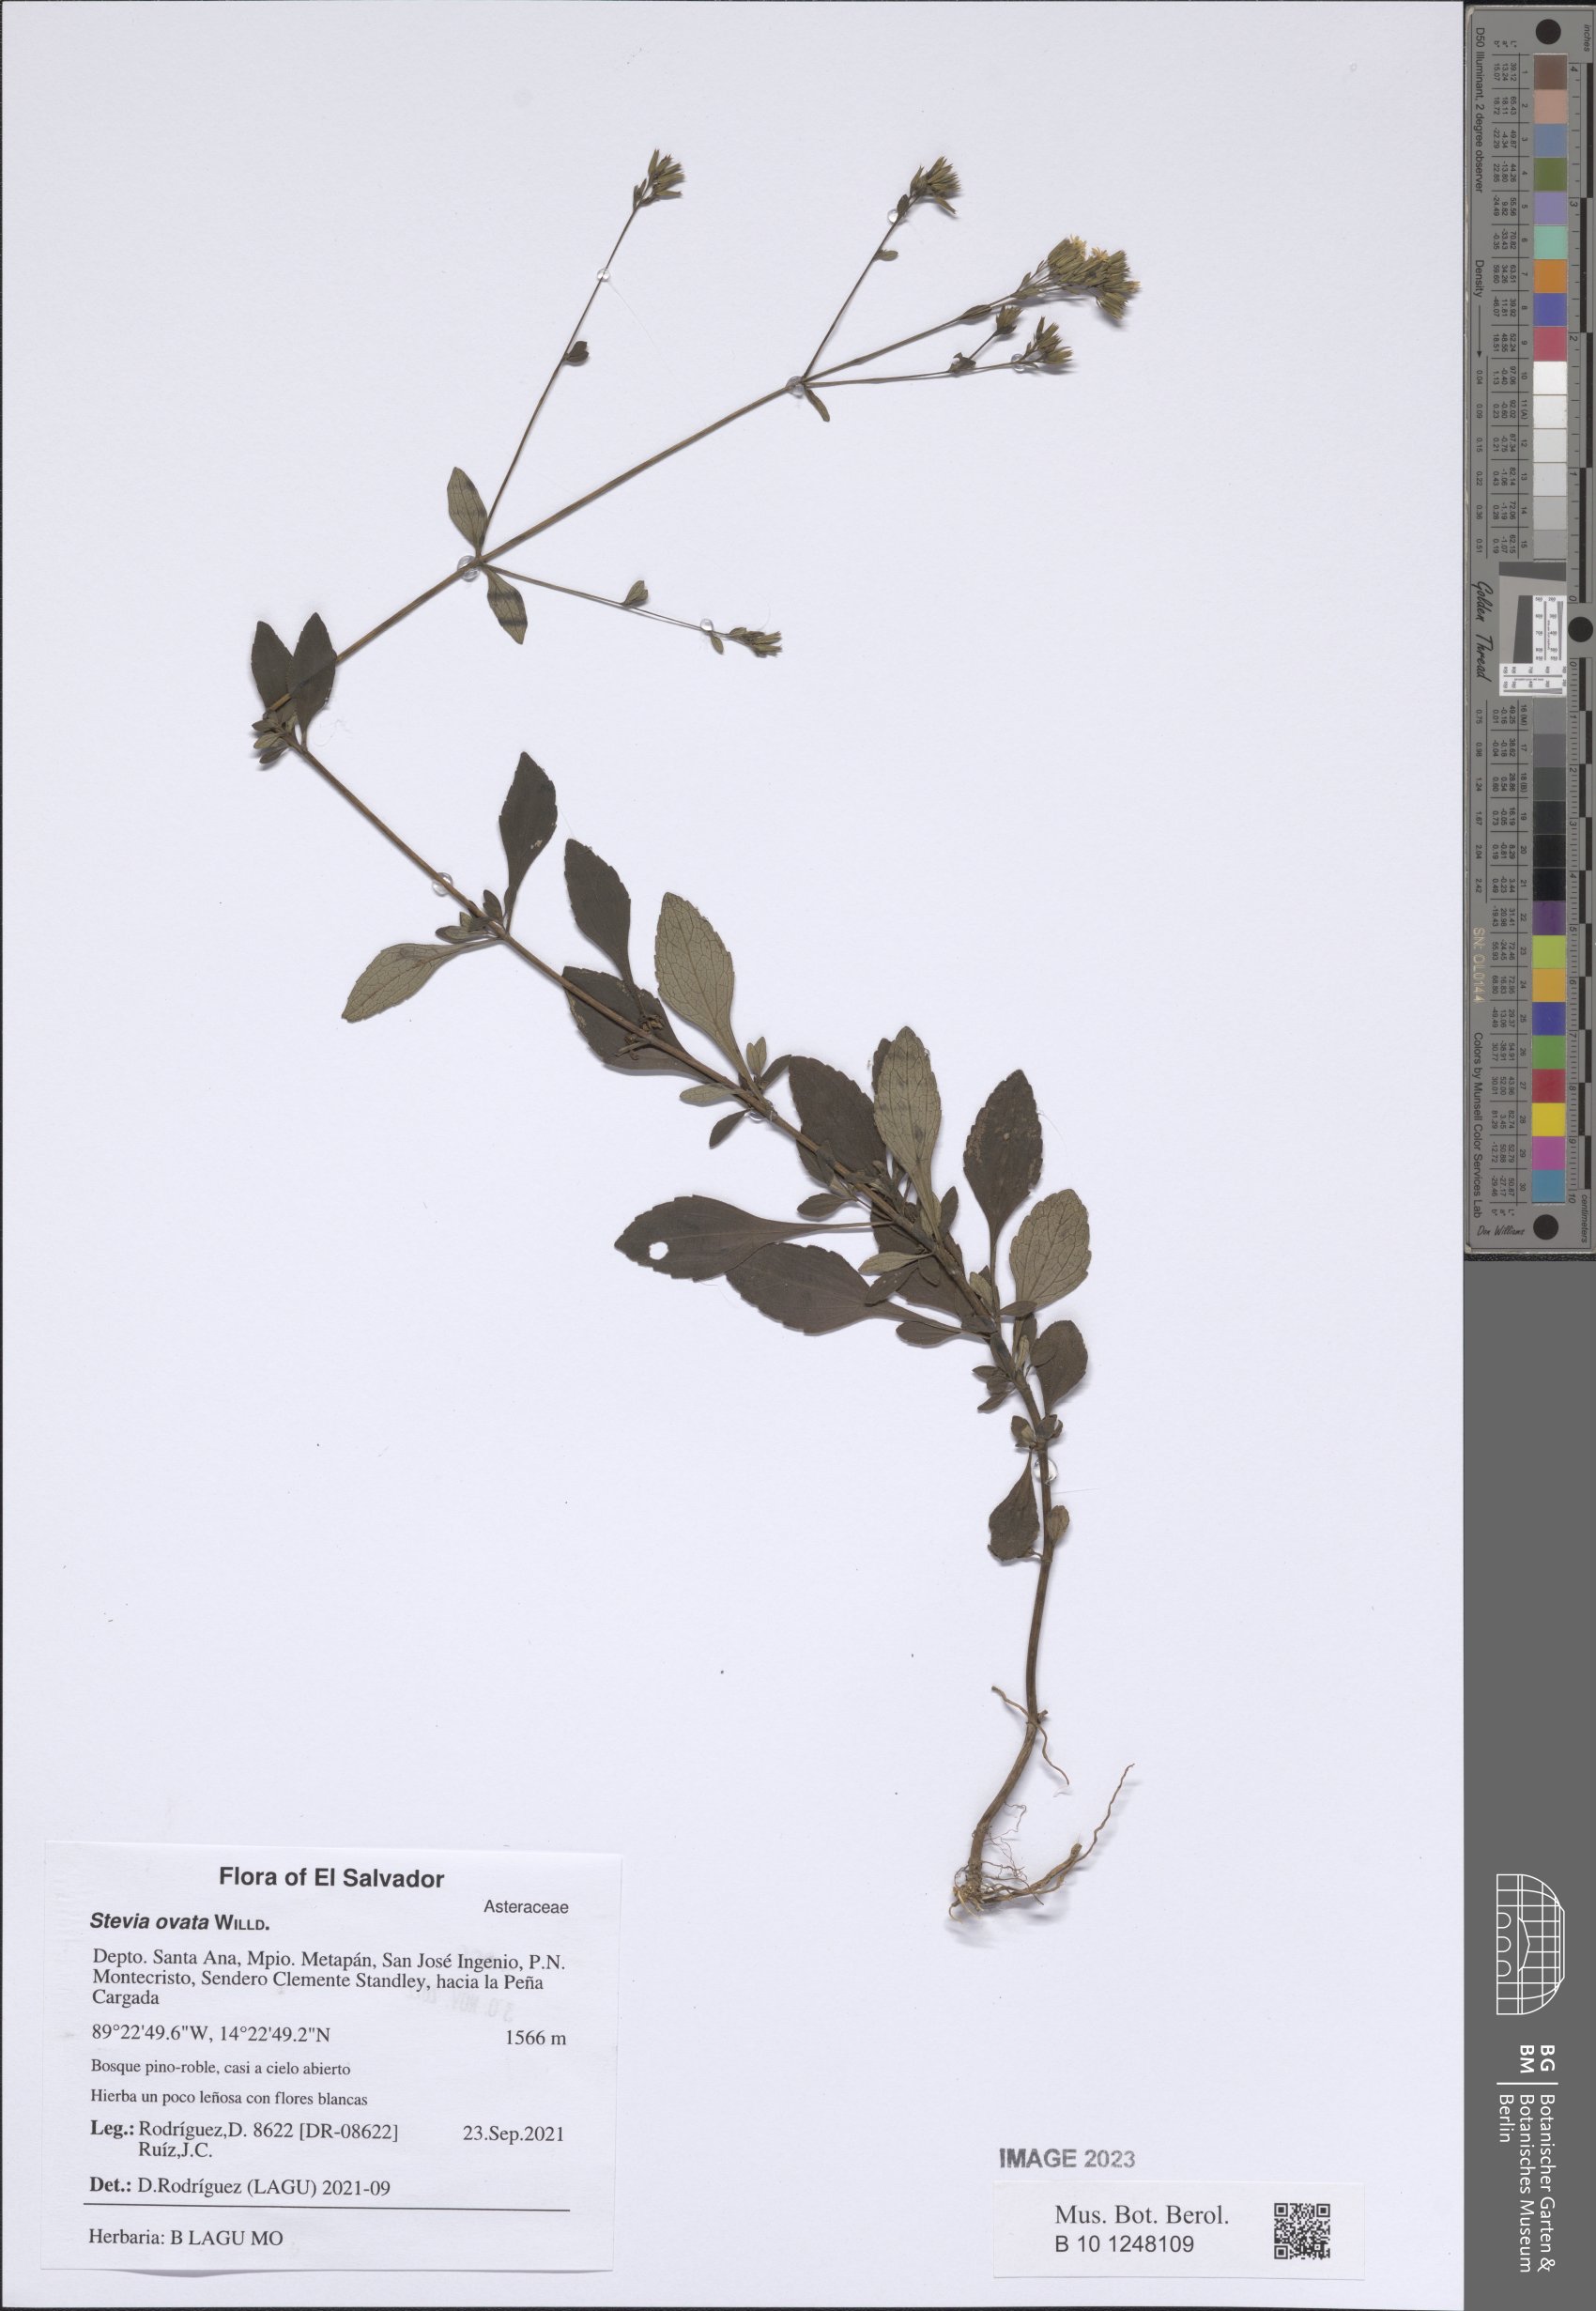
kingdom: Plantae
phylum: Tracheophyta
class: Magnoliopsida
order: Asterales
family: Asteraceae
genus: Stevia
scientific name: Stevia ovata
